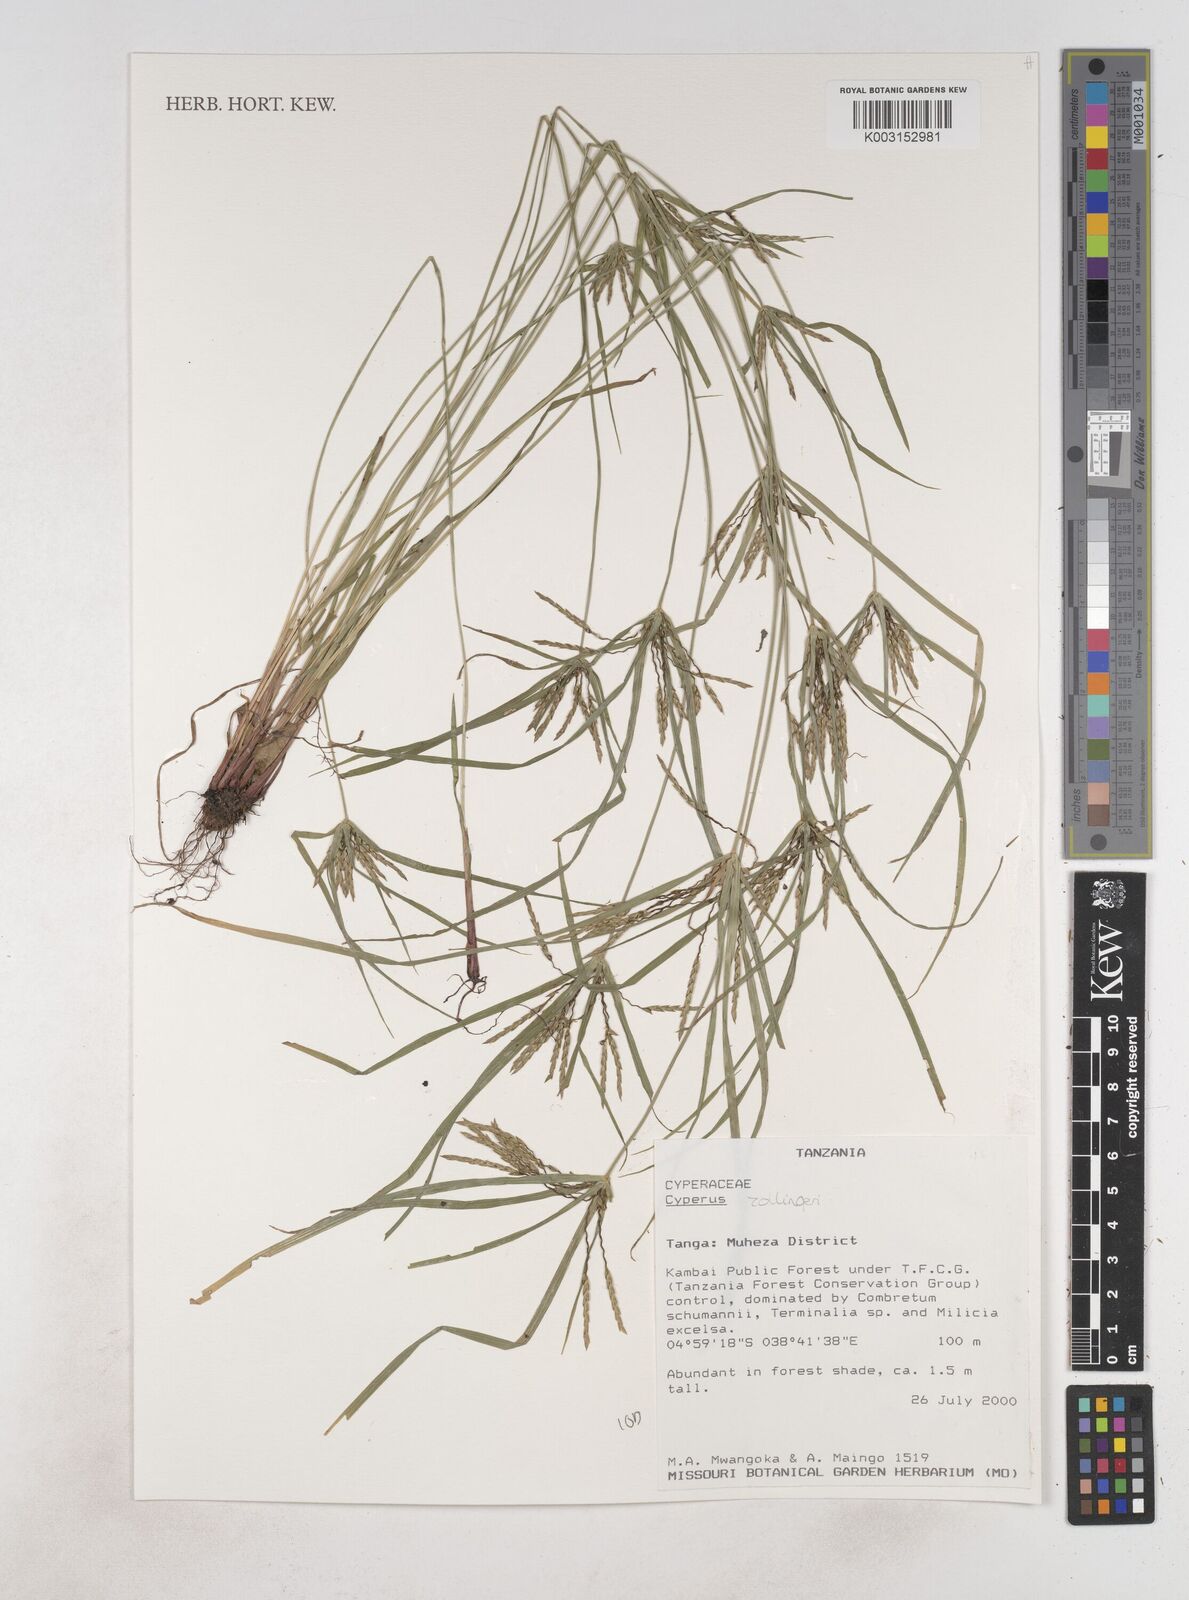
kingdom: Plantae
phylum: Tracheophyta
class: Liliopsida
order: Poales
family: Cyperaceae
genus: Cyperus
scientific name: Cyperus zollingeri
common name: Roadside flatsedge
